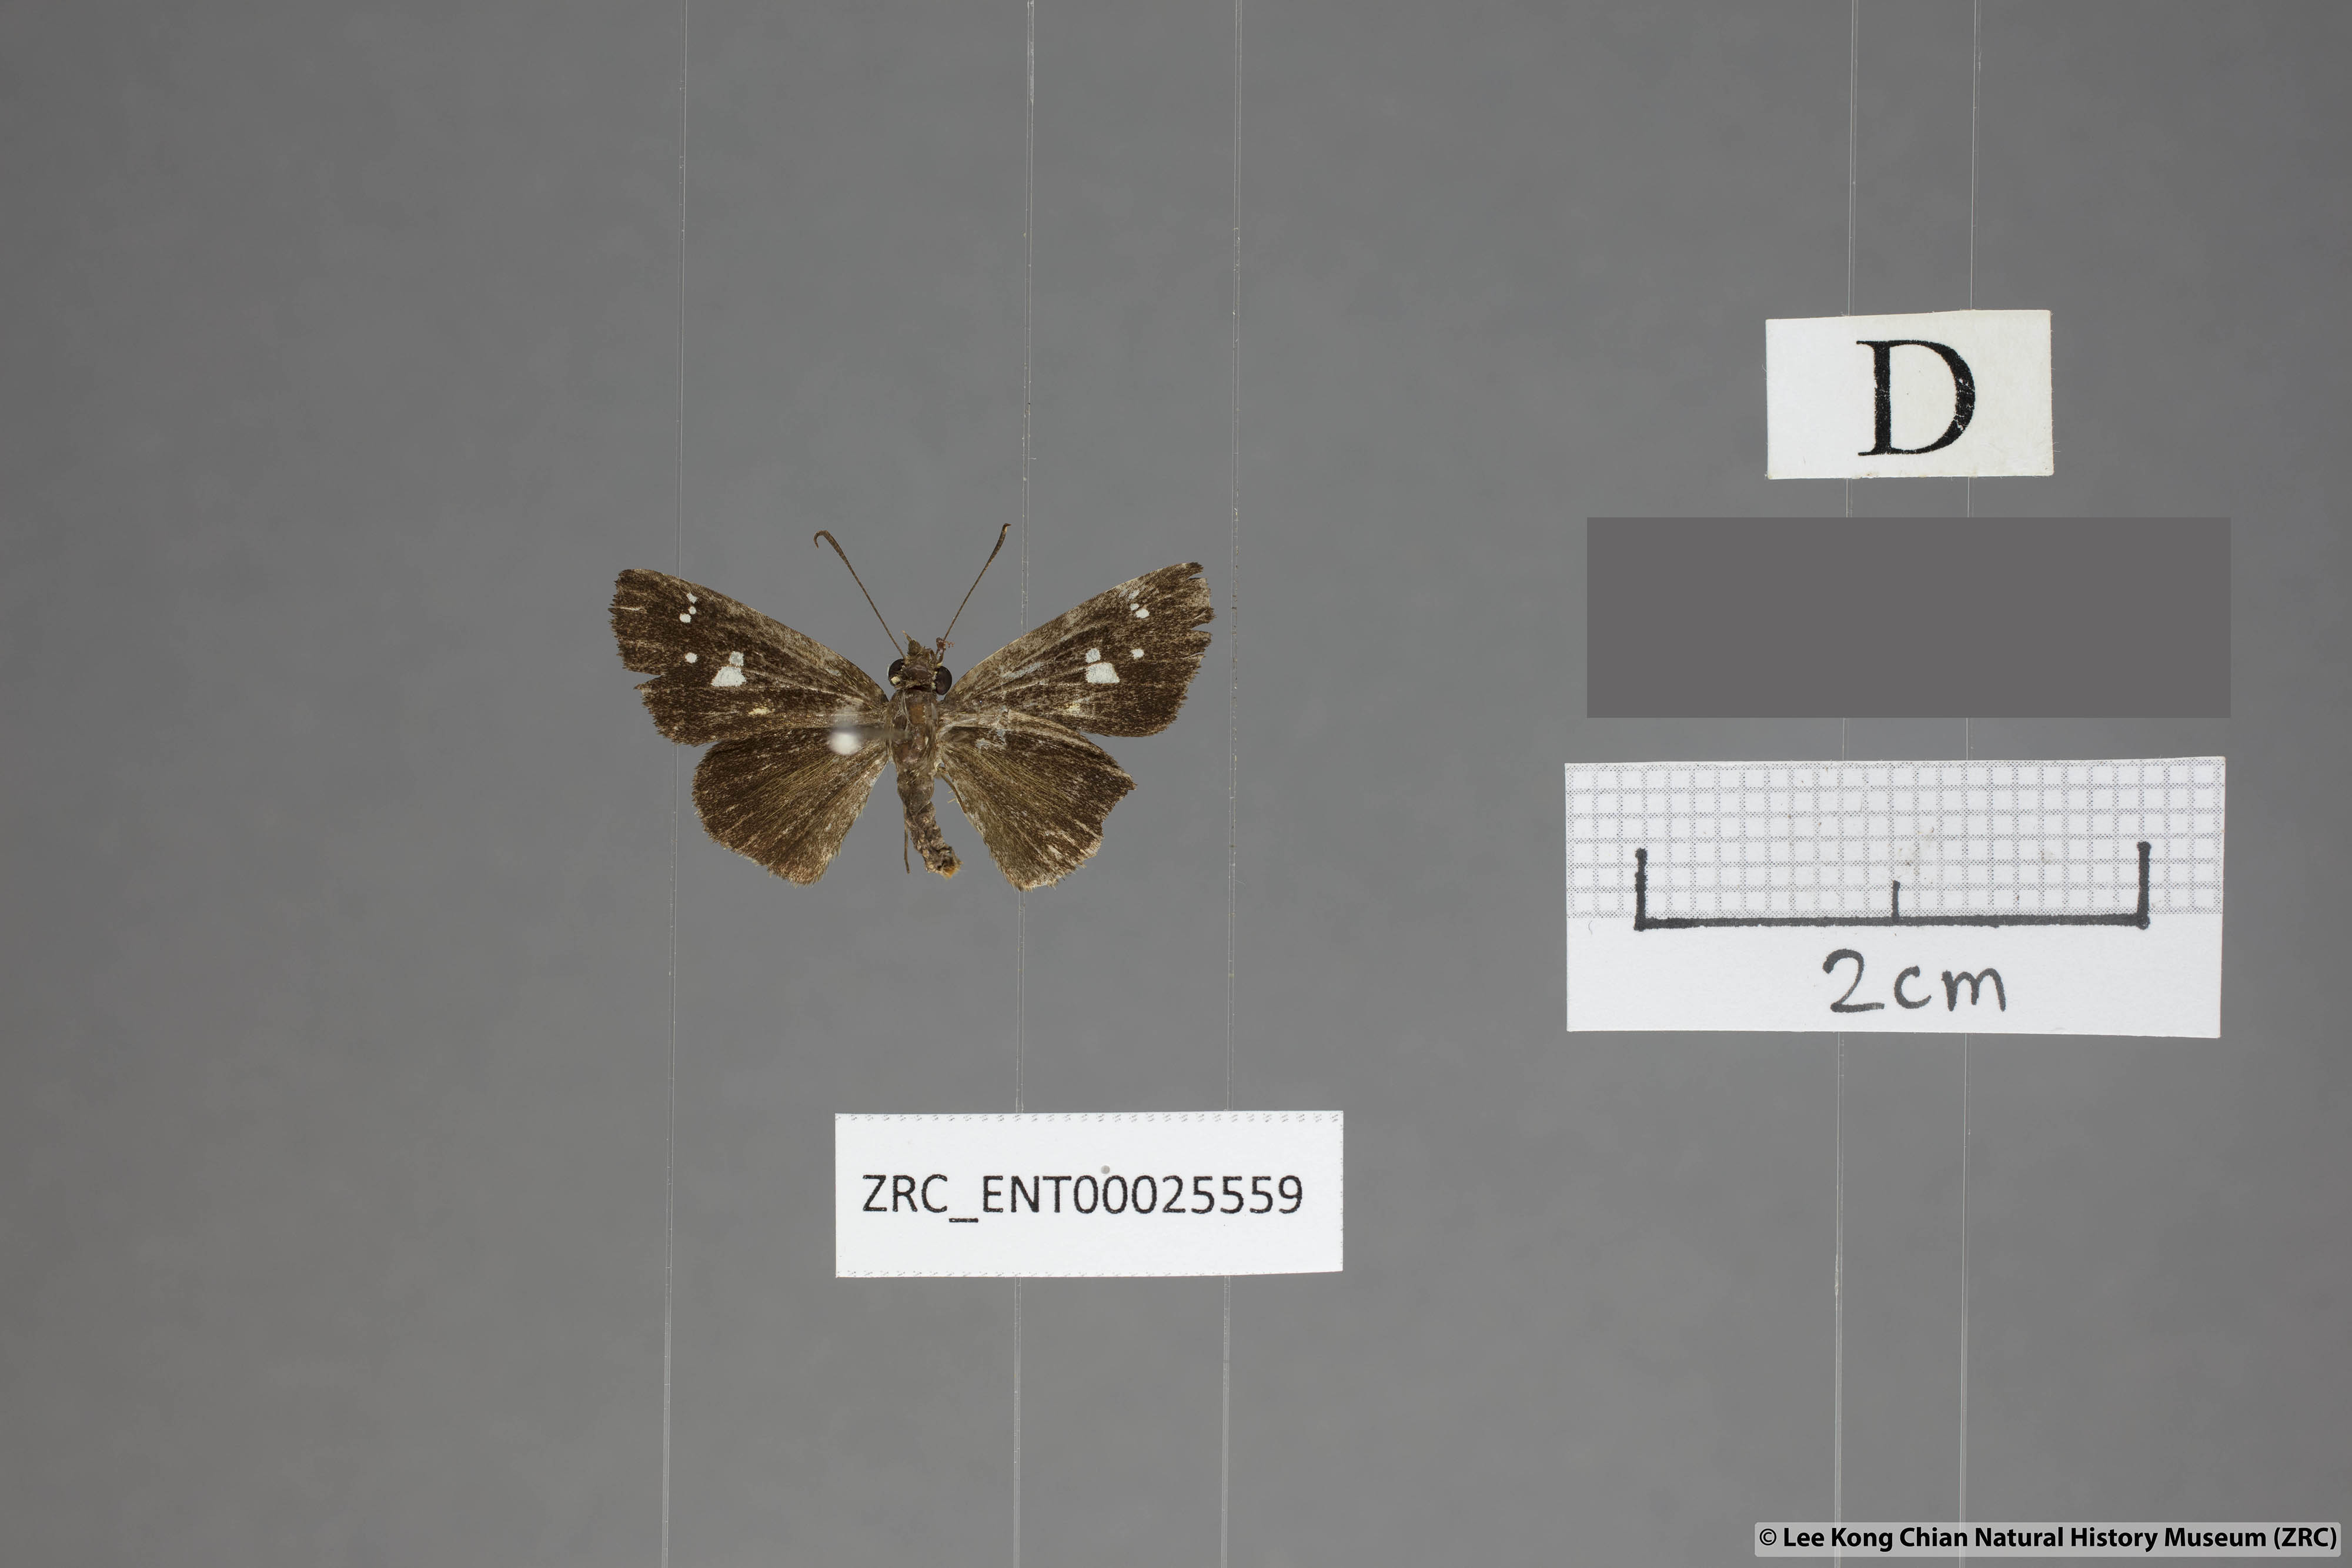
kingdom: Animalia
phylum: Arthropoda
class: Insecta
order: Lepidoptera
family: Hesperiidae
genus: Scobura
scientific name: Scobura woolletti
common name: Brown forest bob
